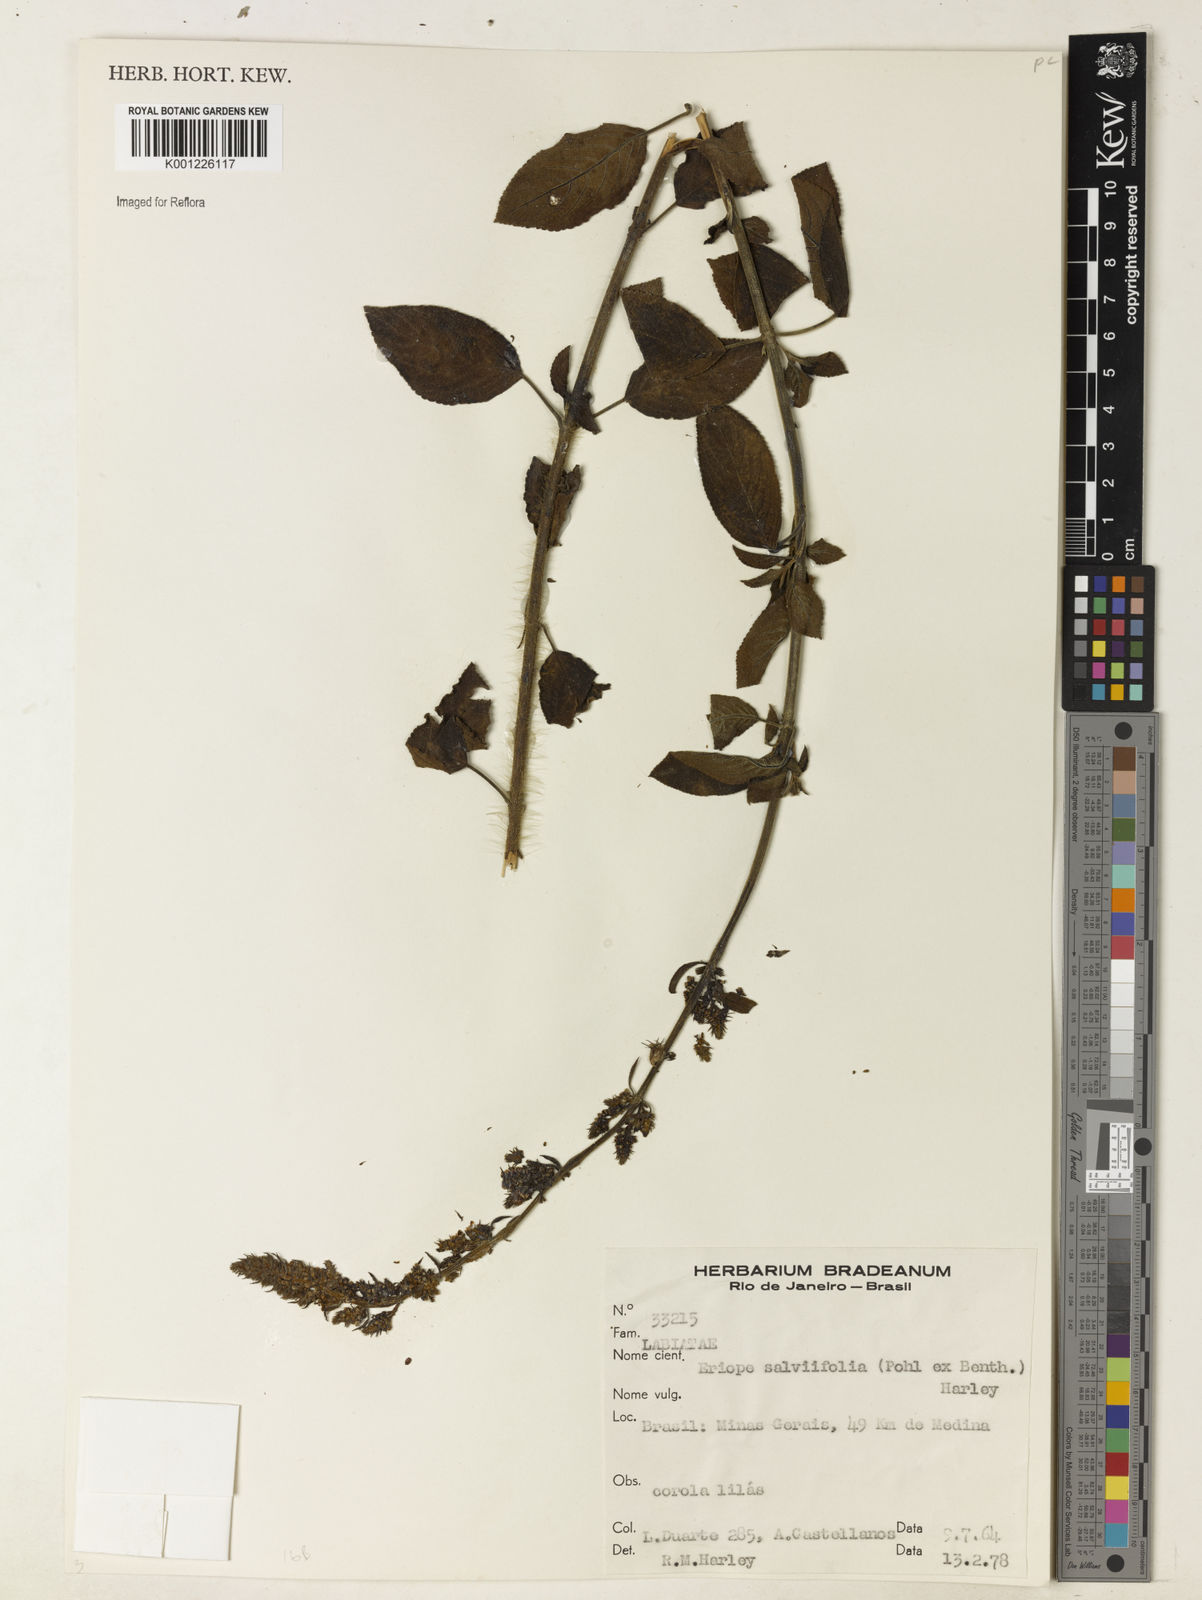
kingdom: Plantae
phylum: Tracheophyta
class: Magnoliopsida
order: Lamiales
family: Lamiaceae
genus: Eriope
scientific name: Eriope salviifolia
